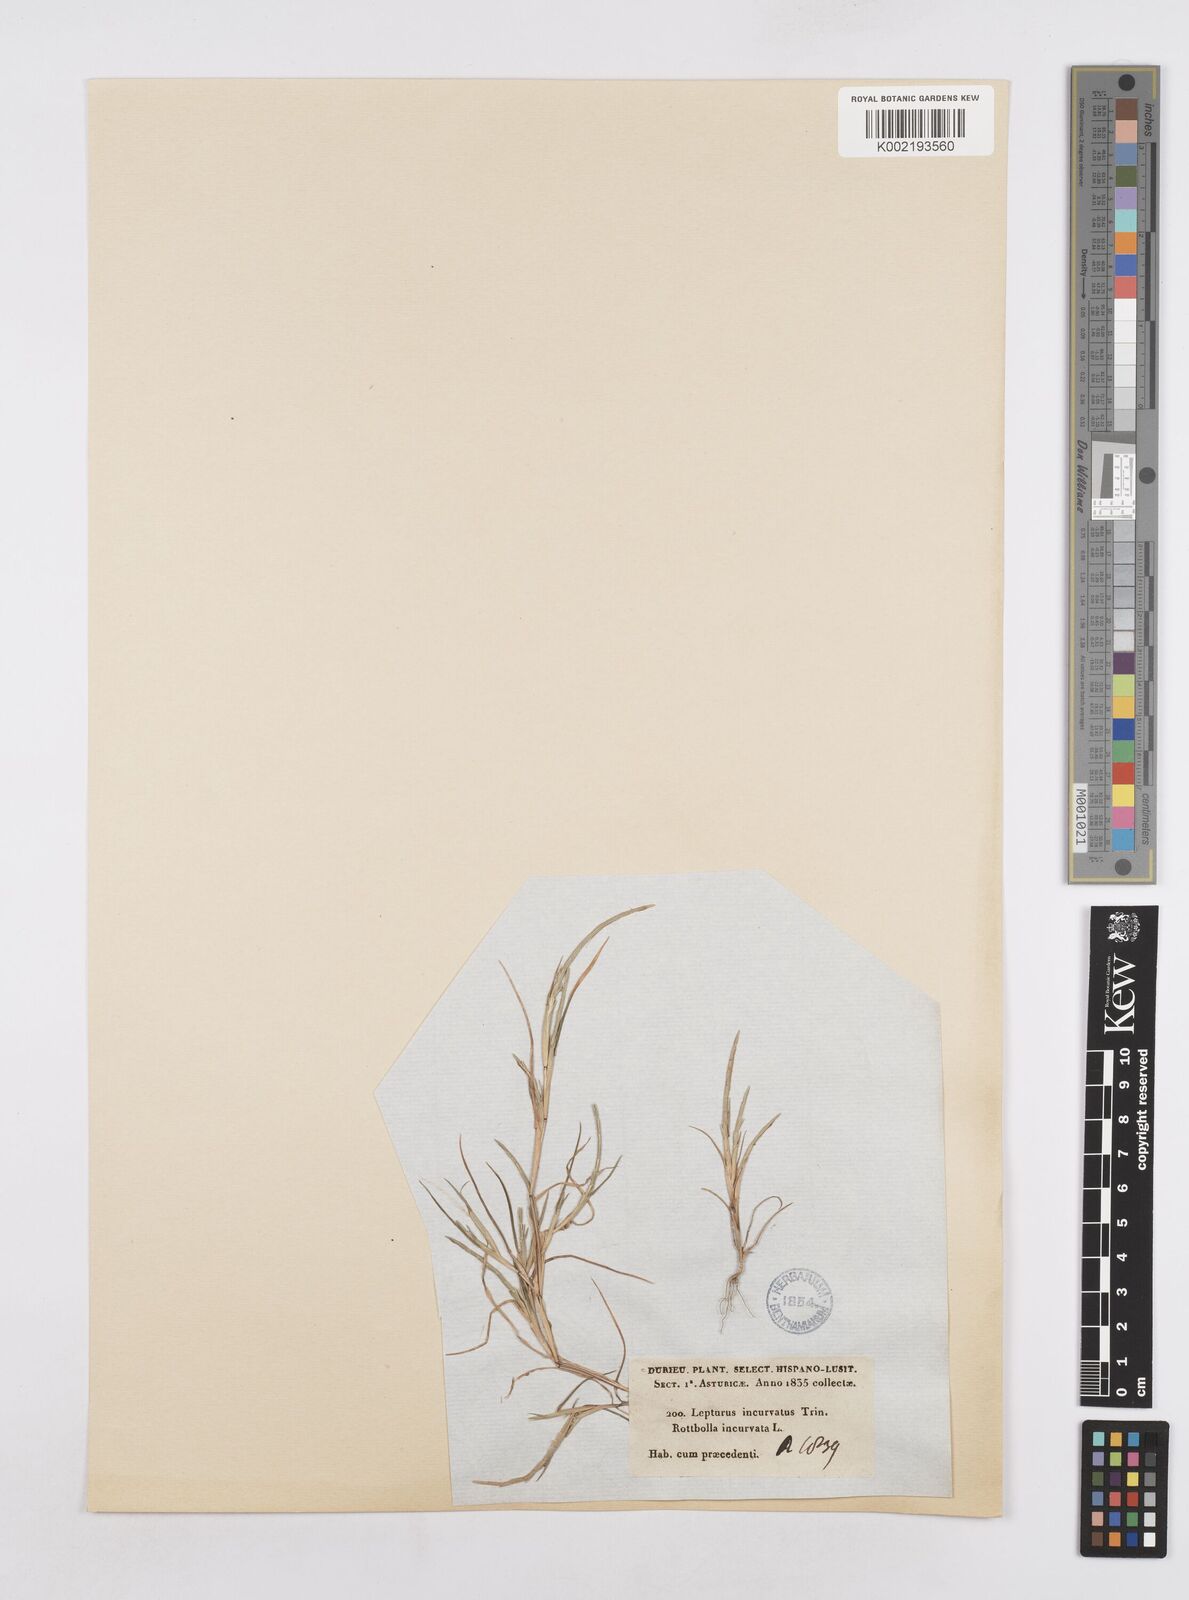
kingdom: Plantae
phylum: Tracheophyta
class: Liliopsida
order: Poales
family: Poaceae
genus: Parapholis
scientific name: Parapholis incurva
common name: Curved sicklegrass
